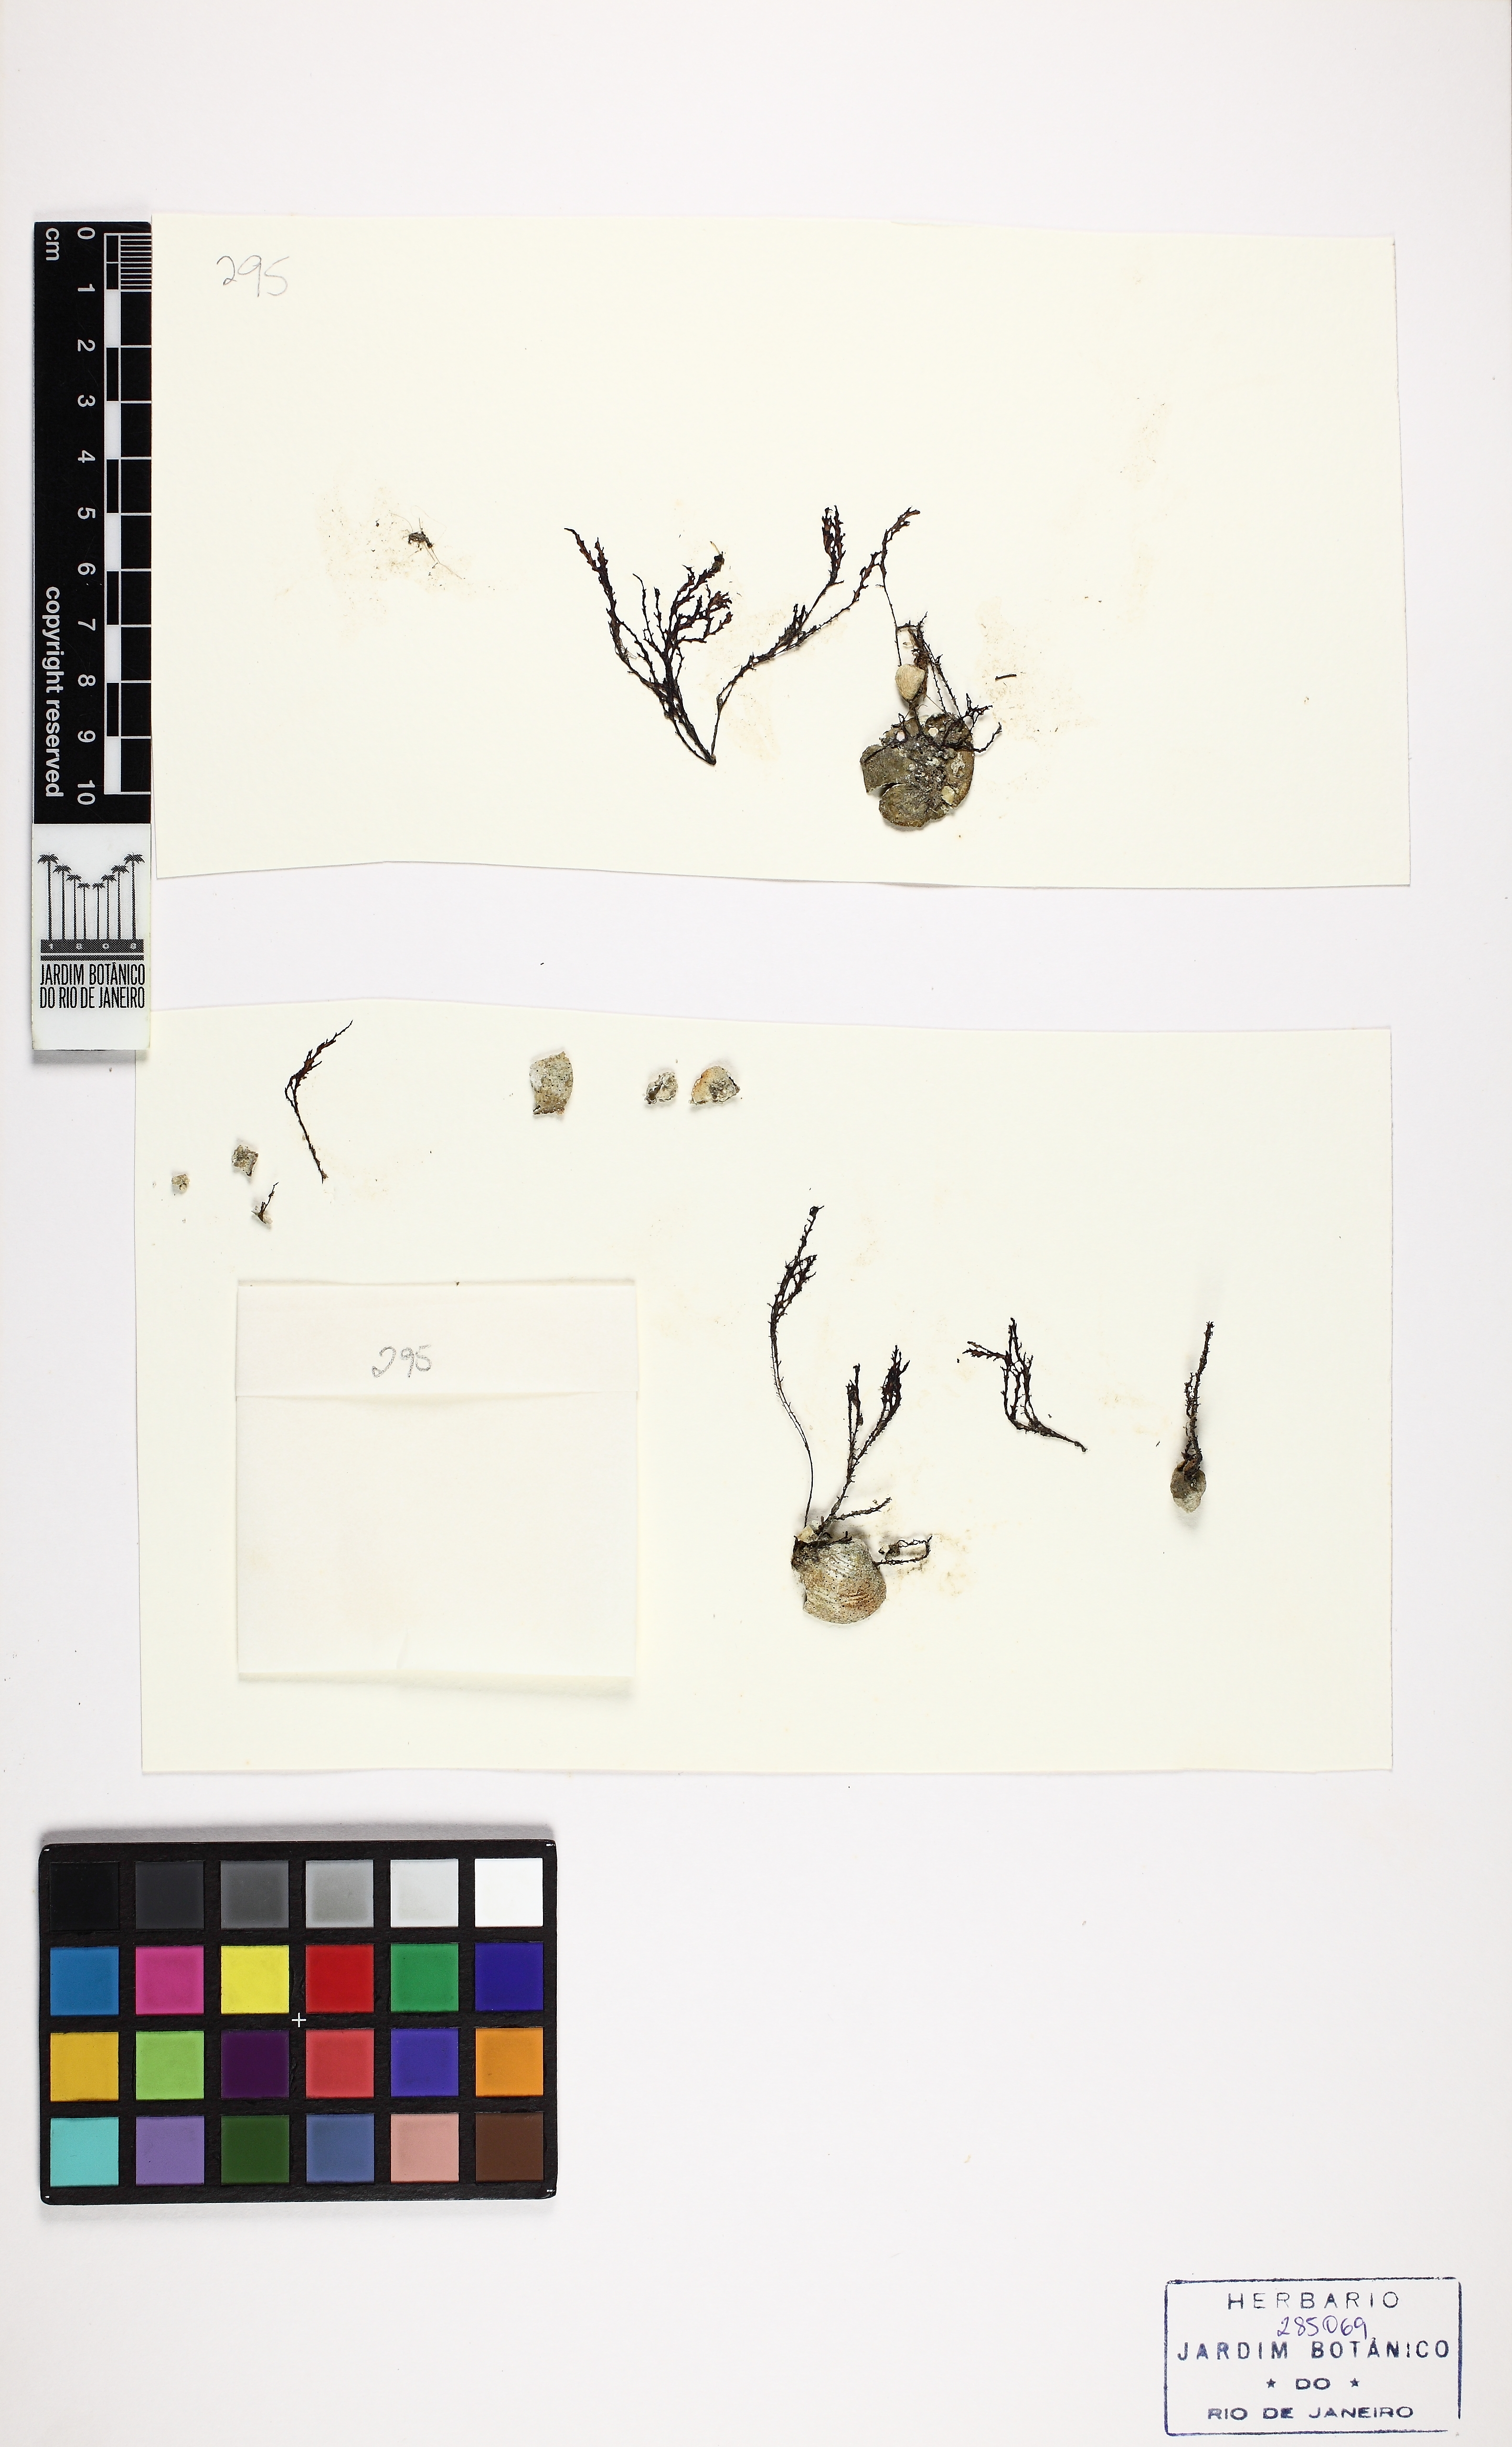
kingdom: Plantae
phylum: Rhodophyta
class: Florideophyceae
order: Ceramiales
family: Rhodomelaceae
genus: Acanthophora
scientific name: Acanthophora spicifera
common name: Red algae
